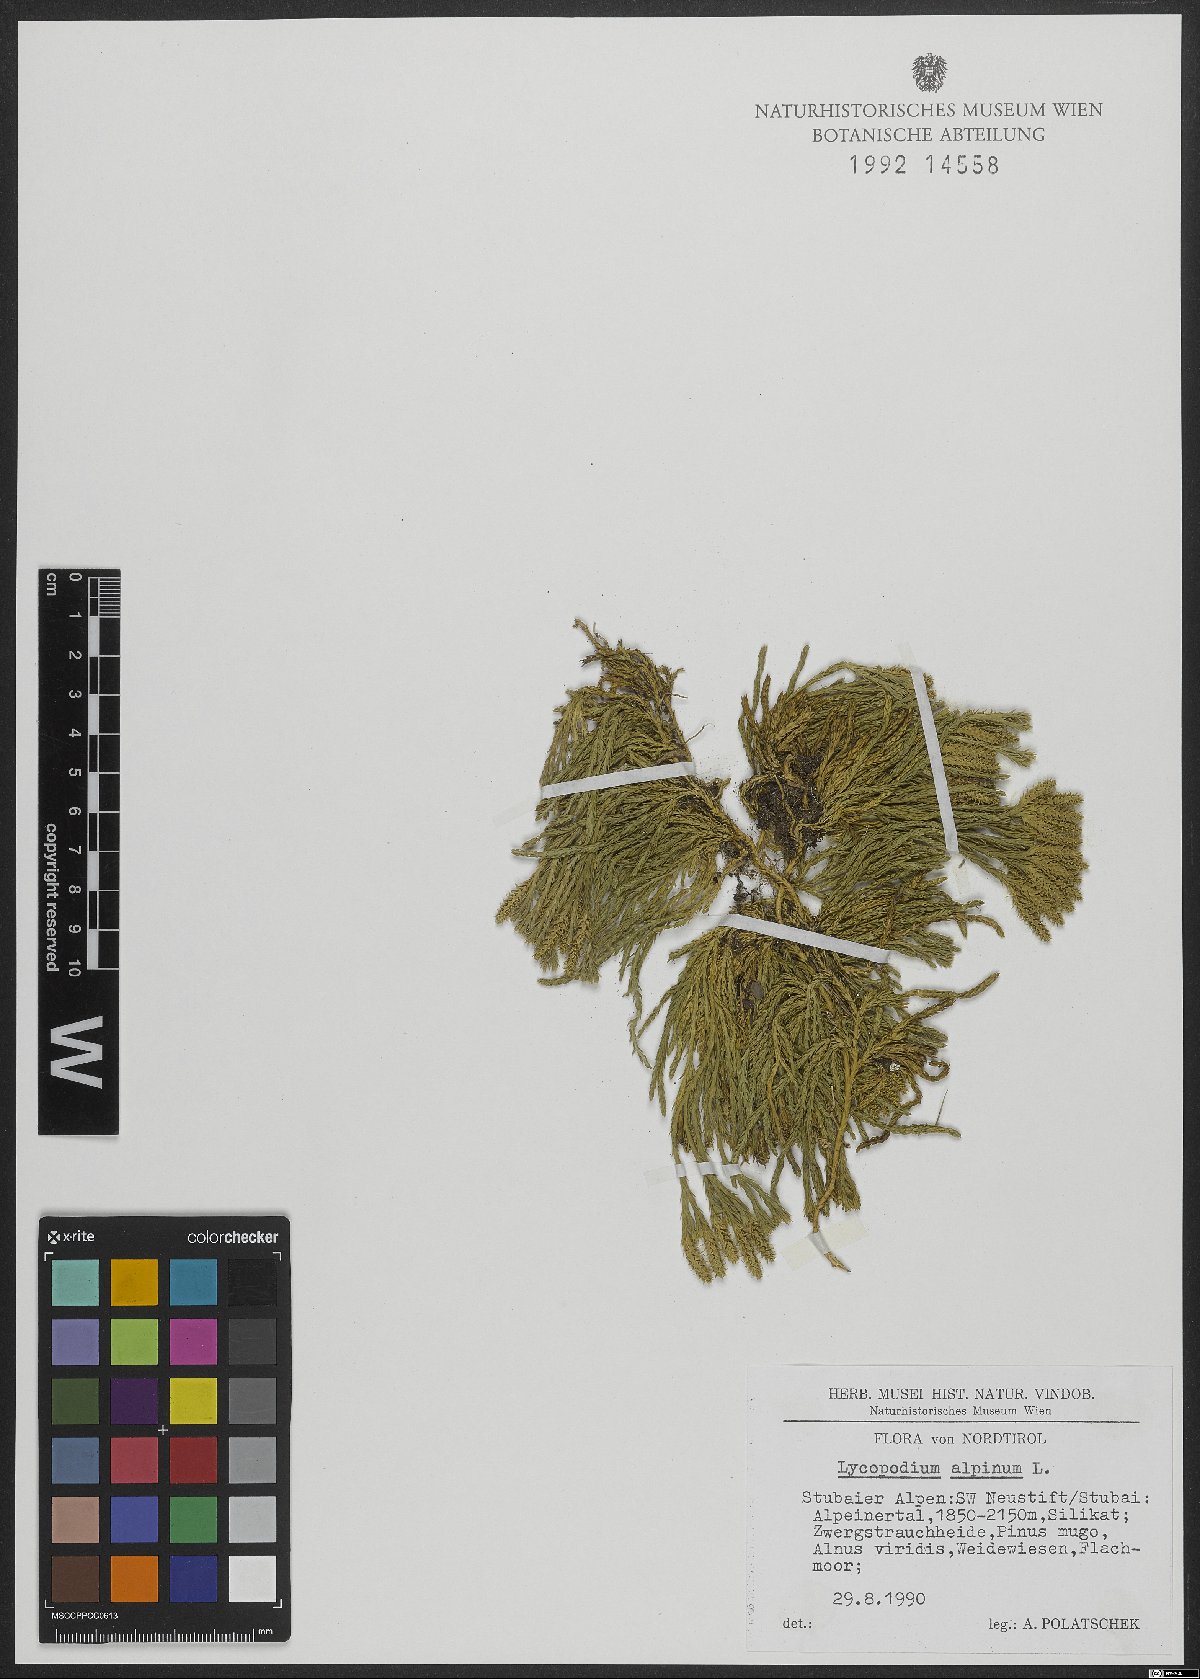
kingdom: Plantae
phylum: Tracheophyta
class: Lycopodiopsida
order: Lycopodiales
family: Lycopodiaceae
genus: Diphasiastrum
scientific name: Diphasiastrum alpinum
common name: Alpine clubmoss
